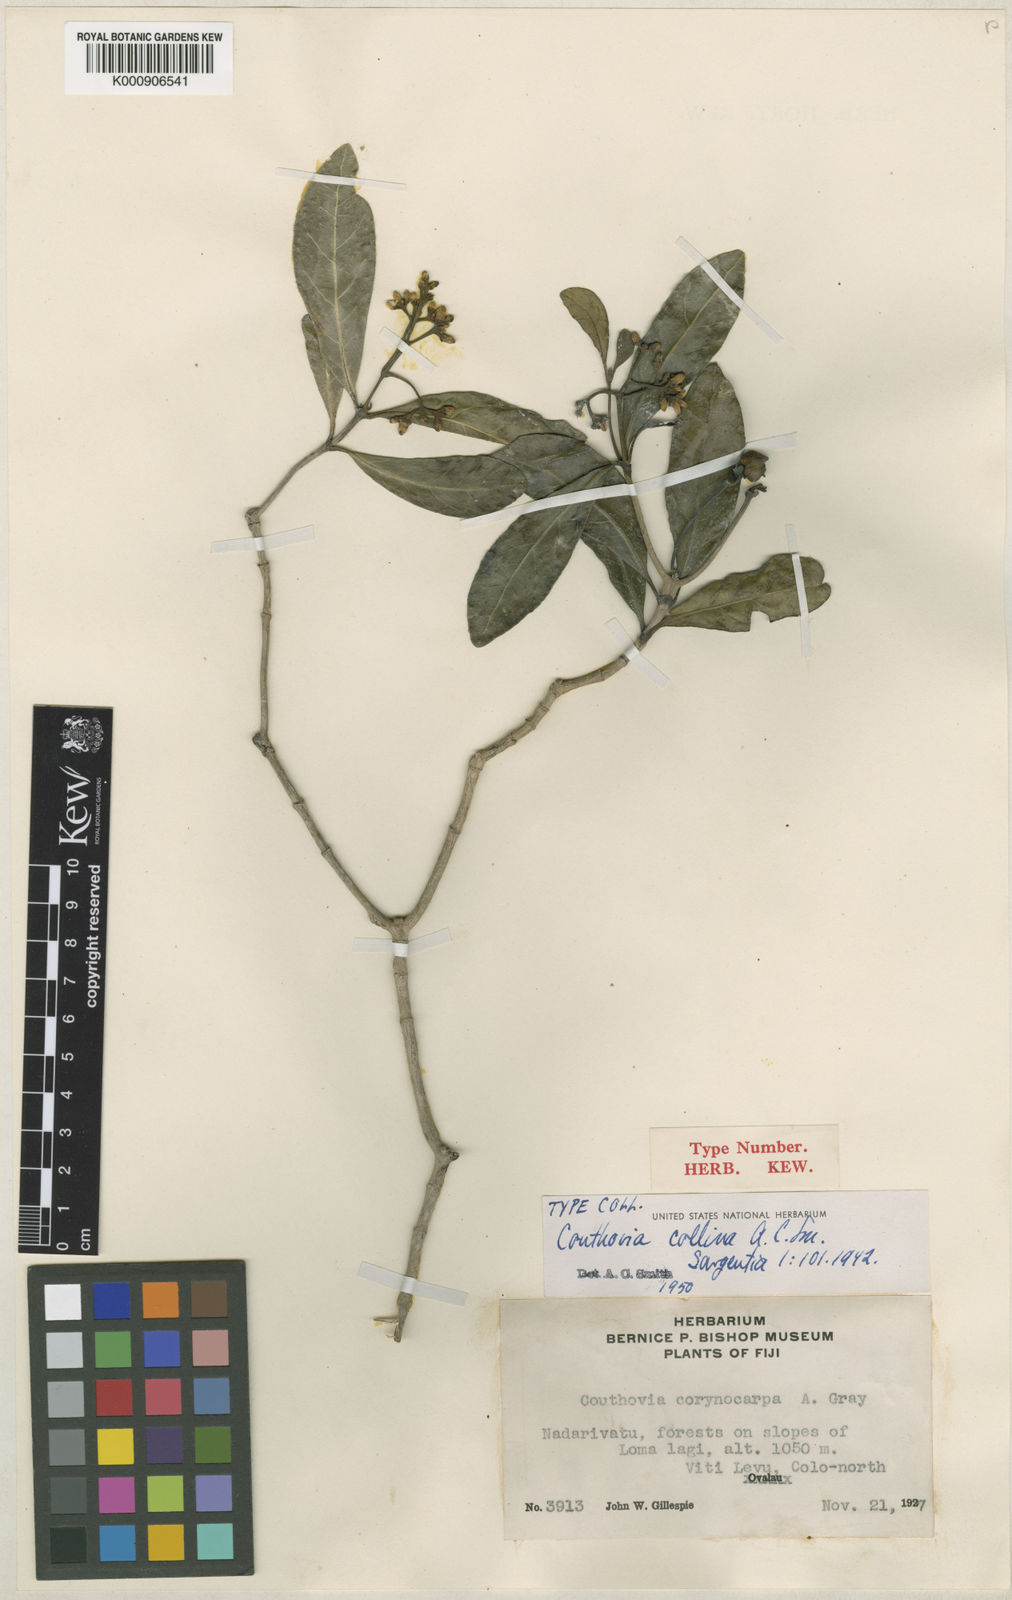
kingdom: Plantae
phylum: Tracheophyta
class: Magnoliopsida
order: Gentianales
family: Loganiaceae
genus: Neuburgia
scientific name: Neuburgia collina
